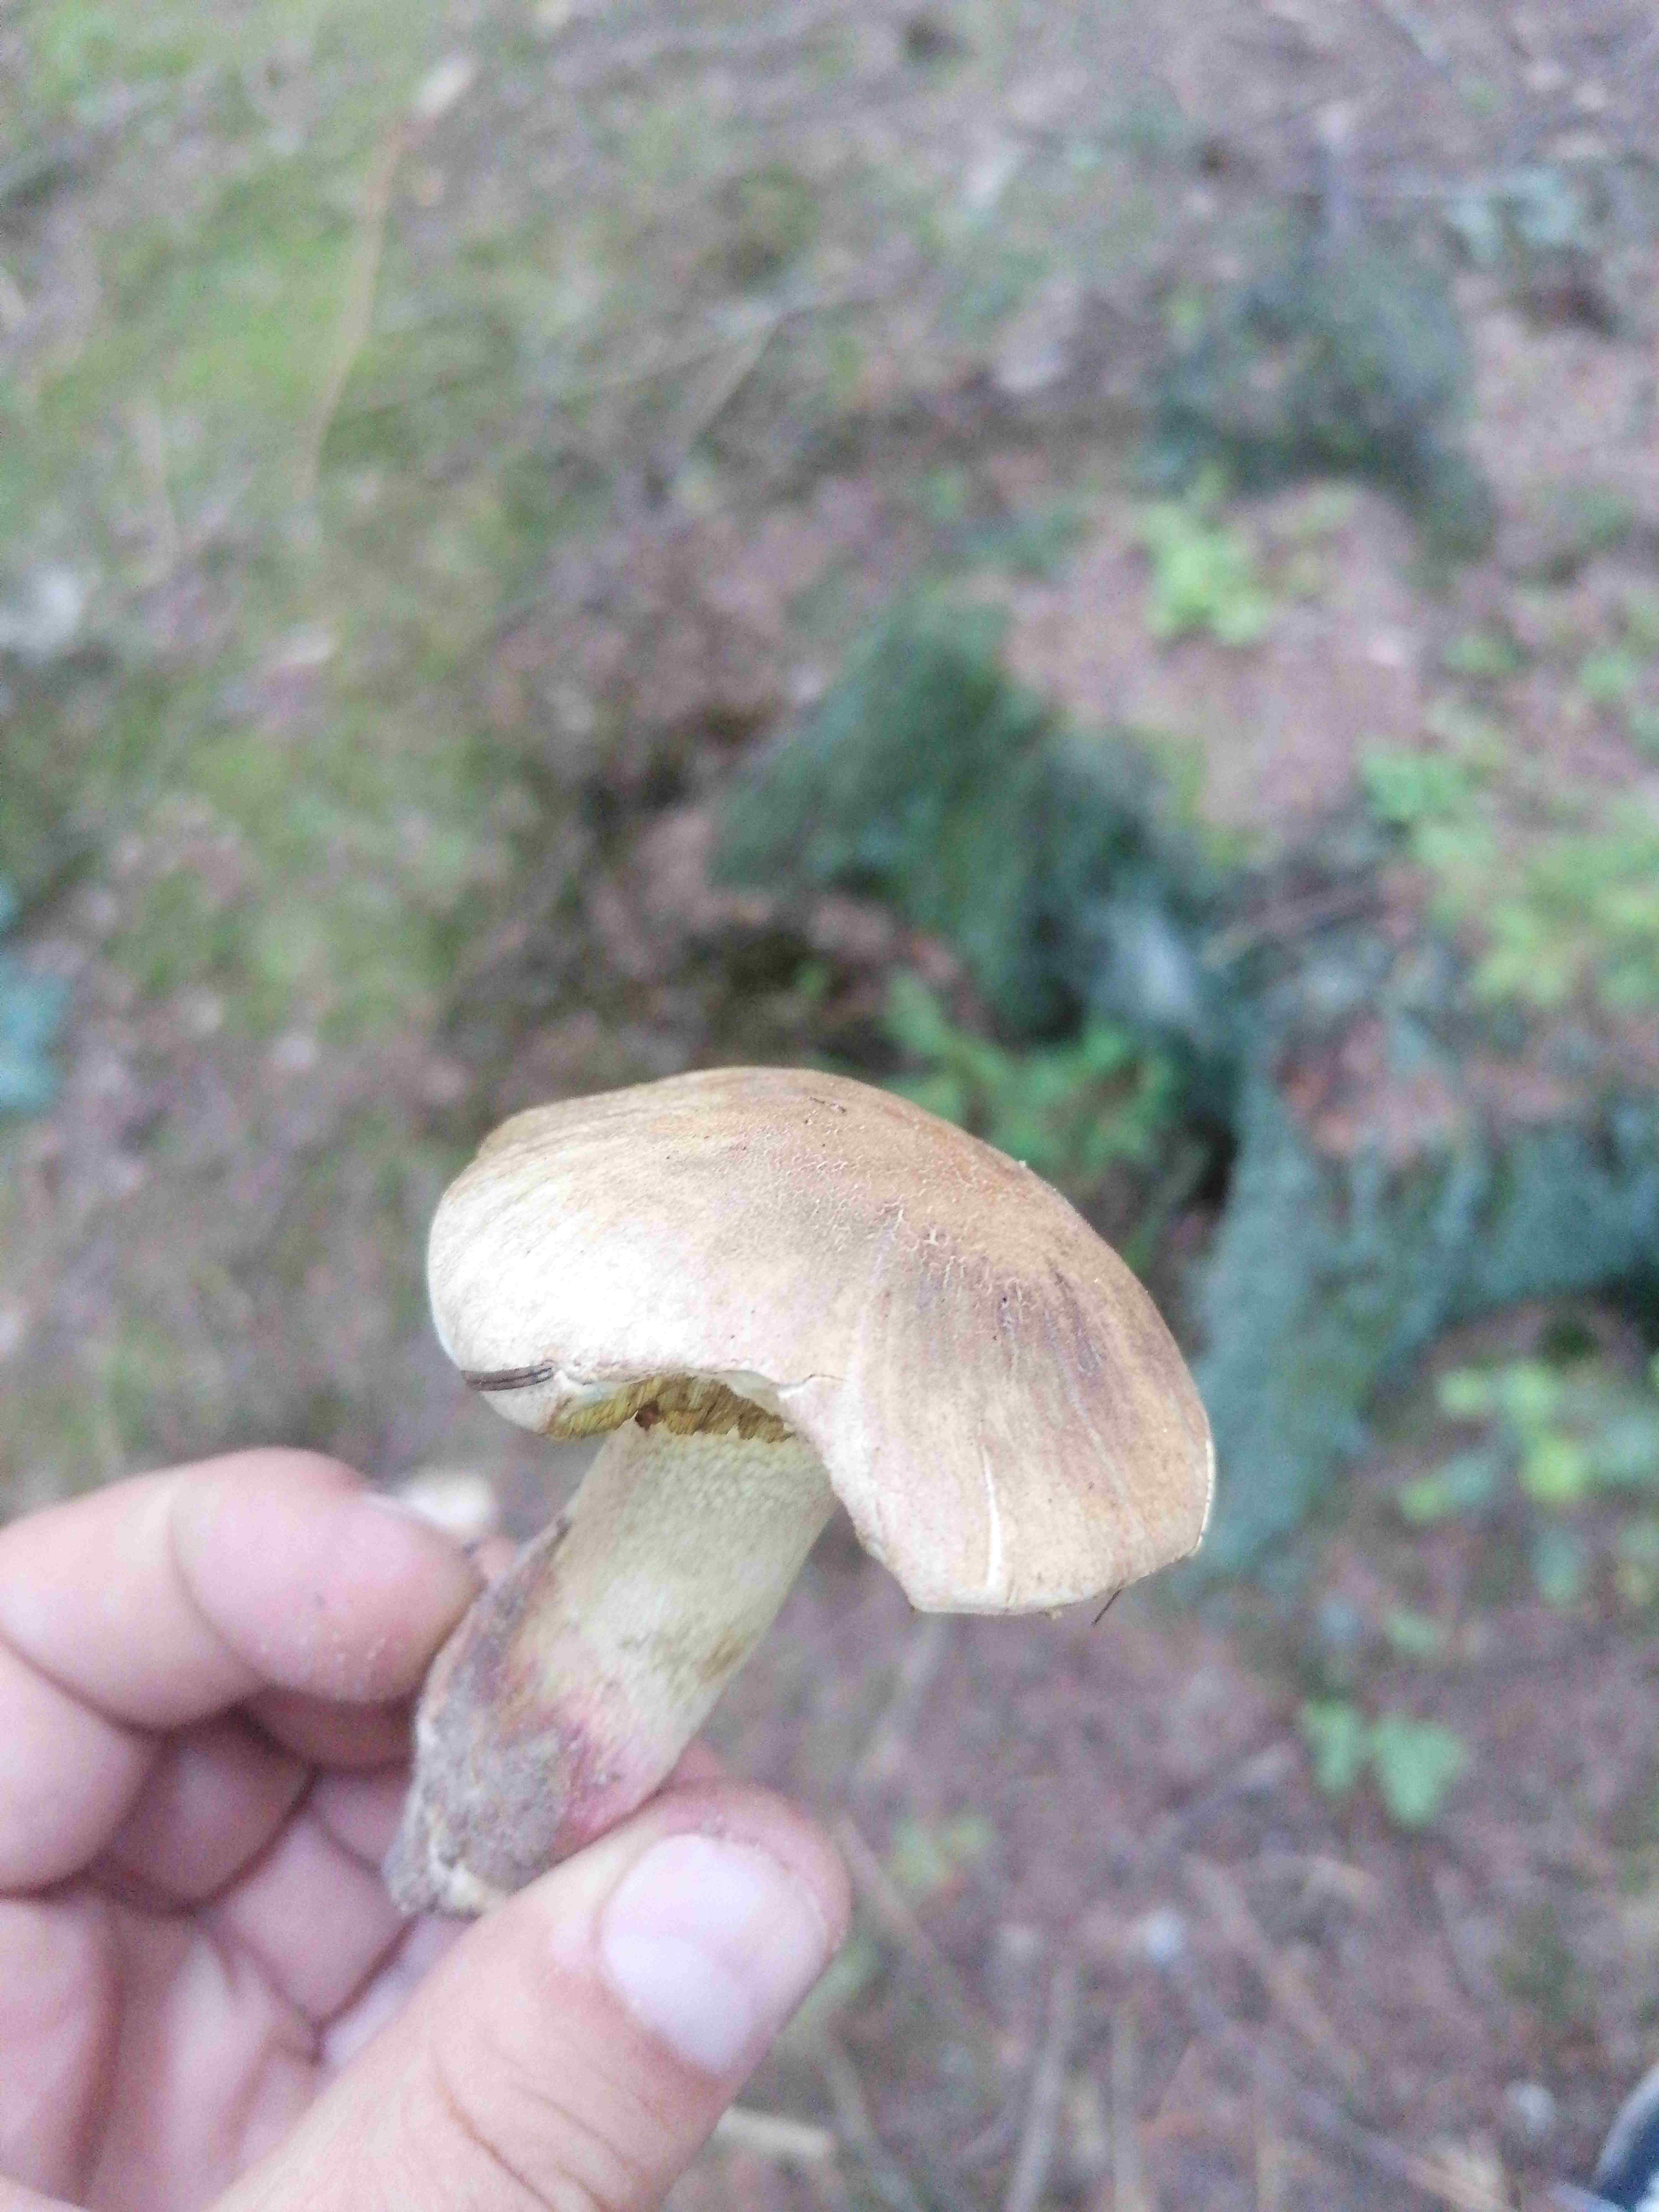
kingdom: Fungi
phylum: Basidiomycota
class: Agaricomycetes
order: Boletales
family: Boletaceae
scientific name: Boletaceae
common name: rørhatfamilien
